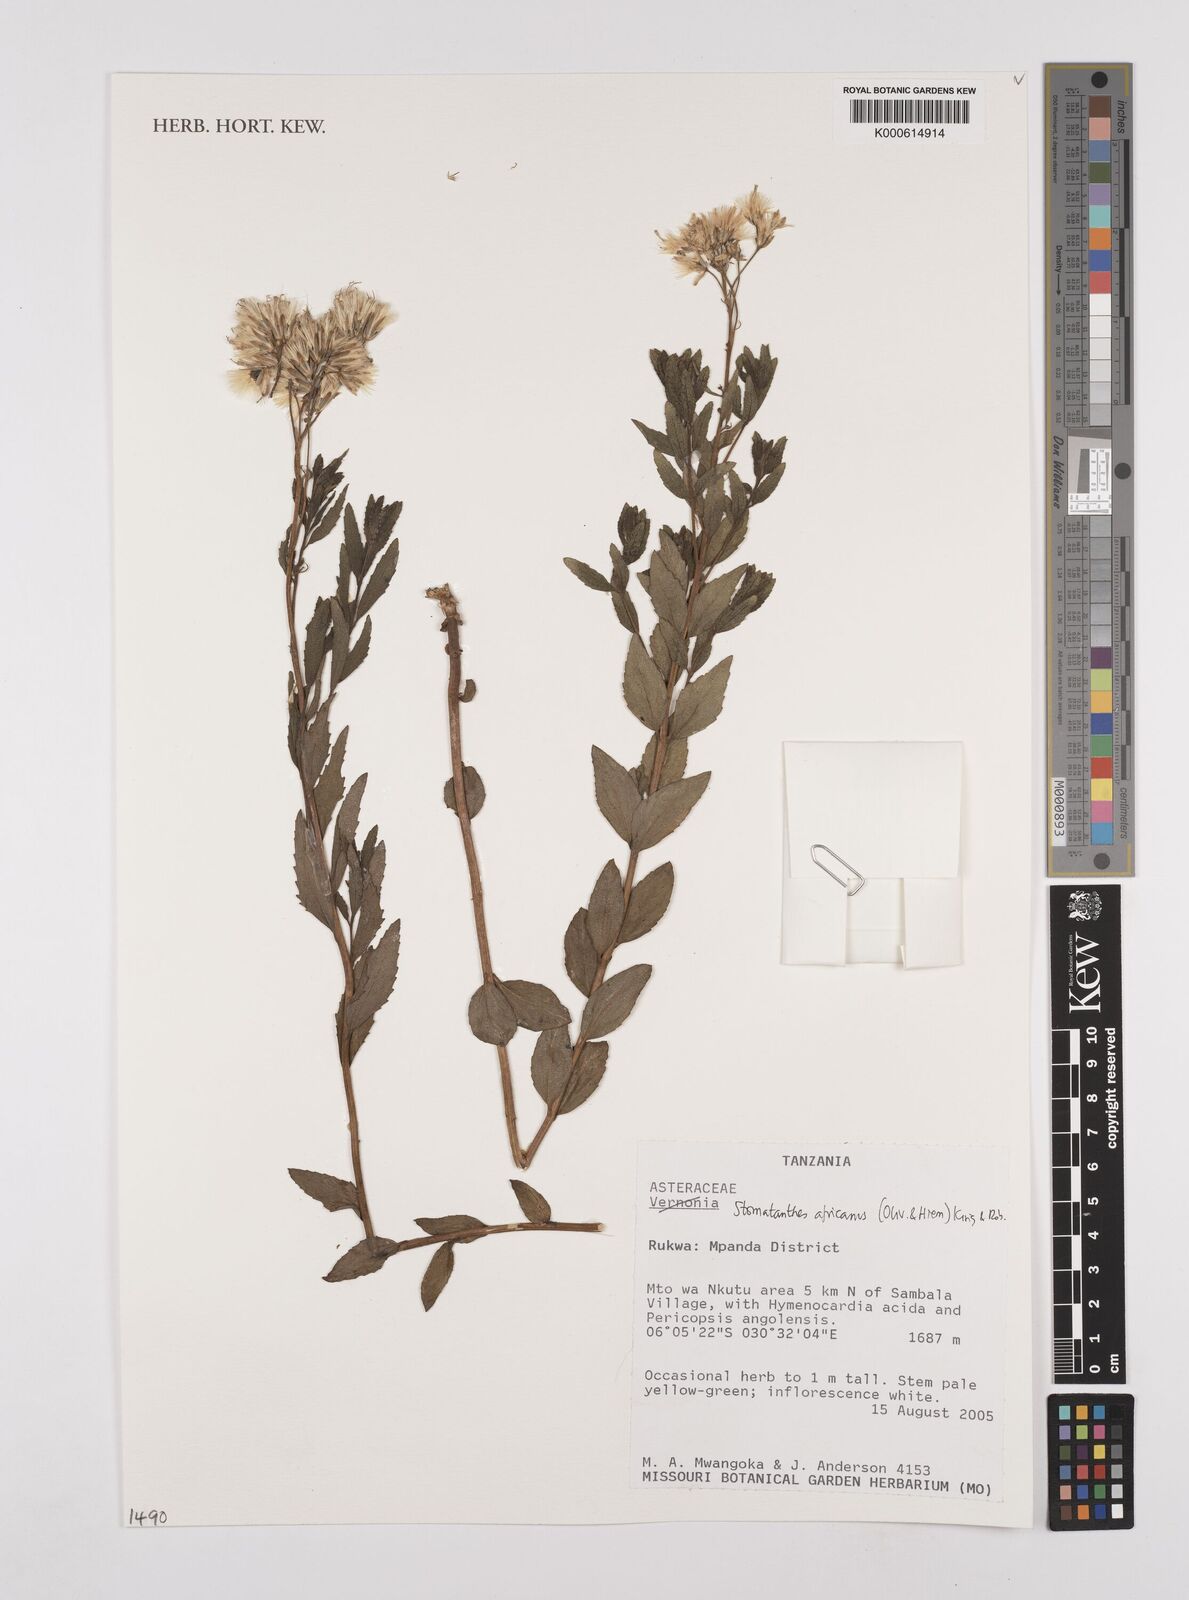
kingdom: Plantae
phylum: Tracheophyta
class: Magnoliopsida
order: Asterales
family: Asteraceae
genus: Stomatanthes
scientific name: Stomatanthes africanus
